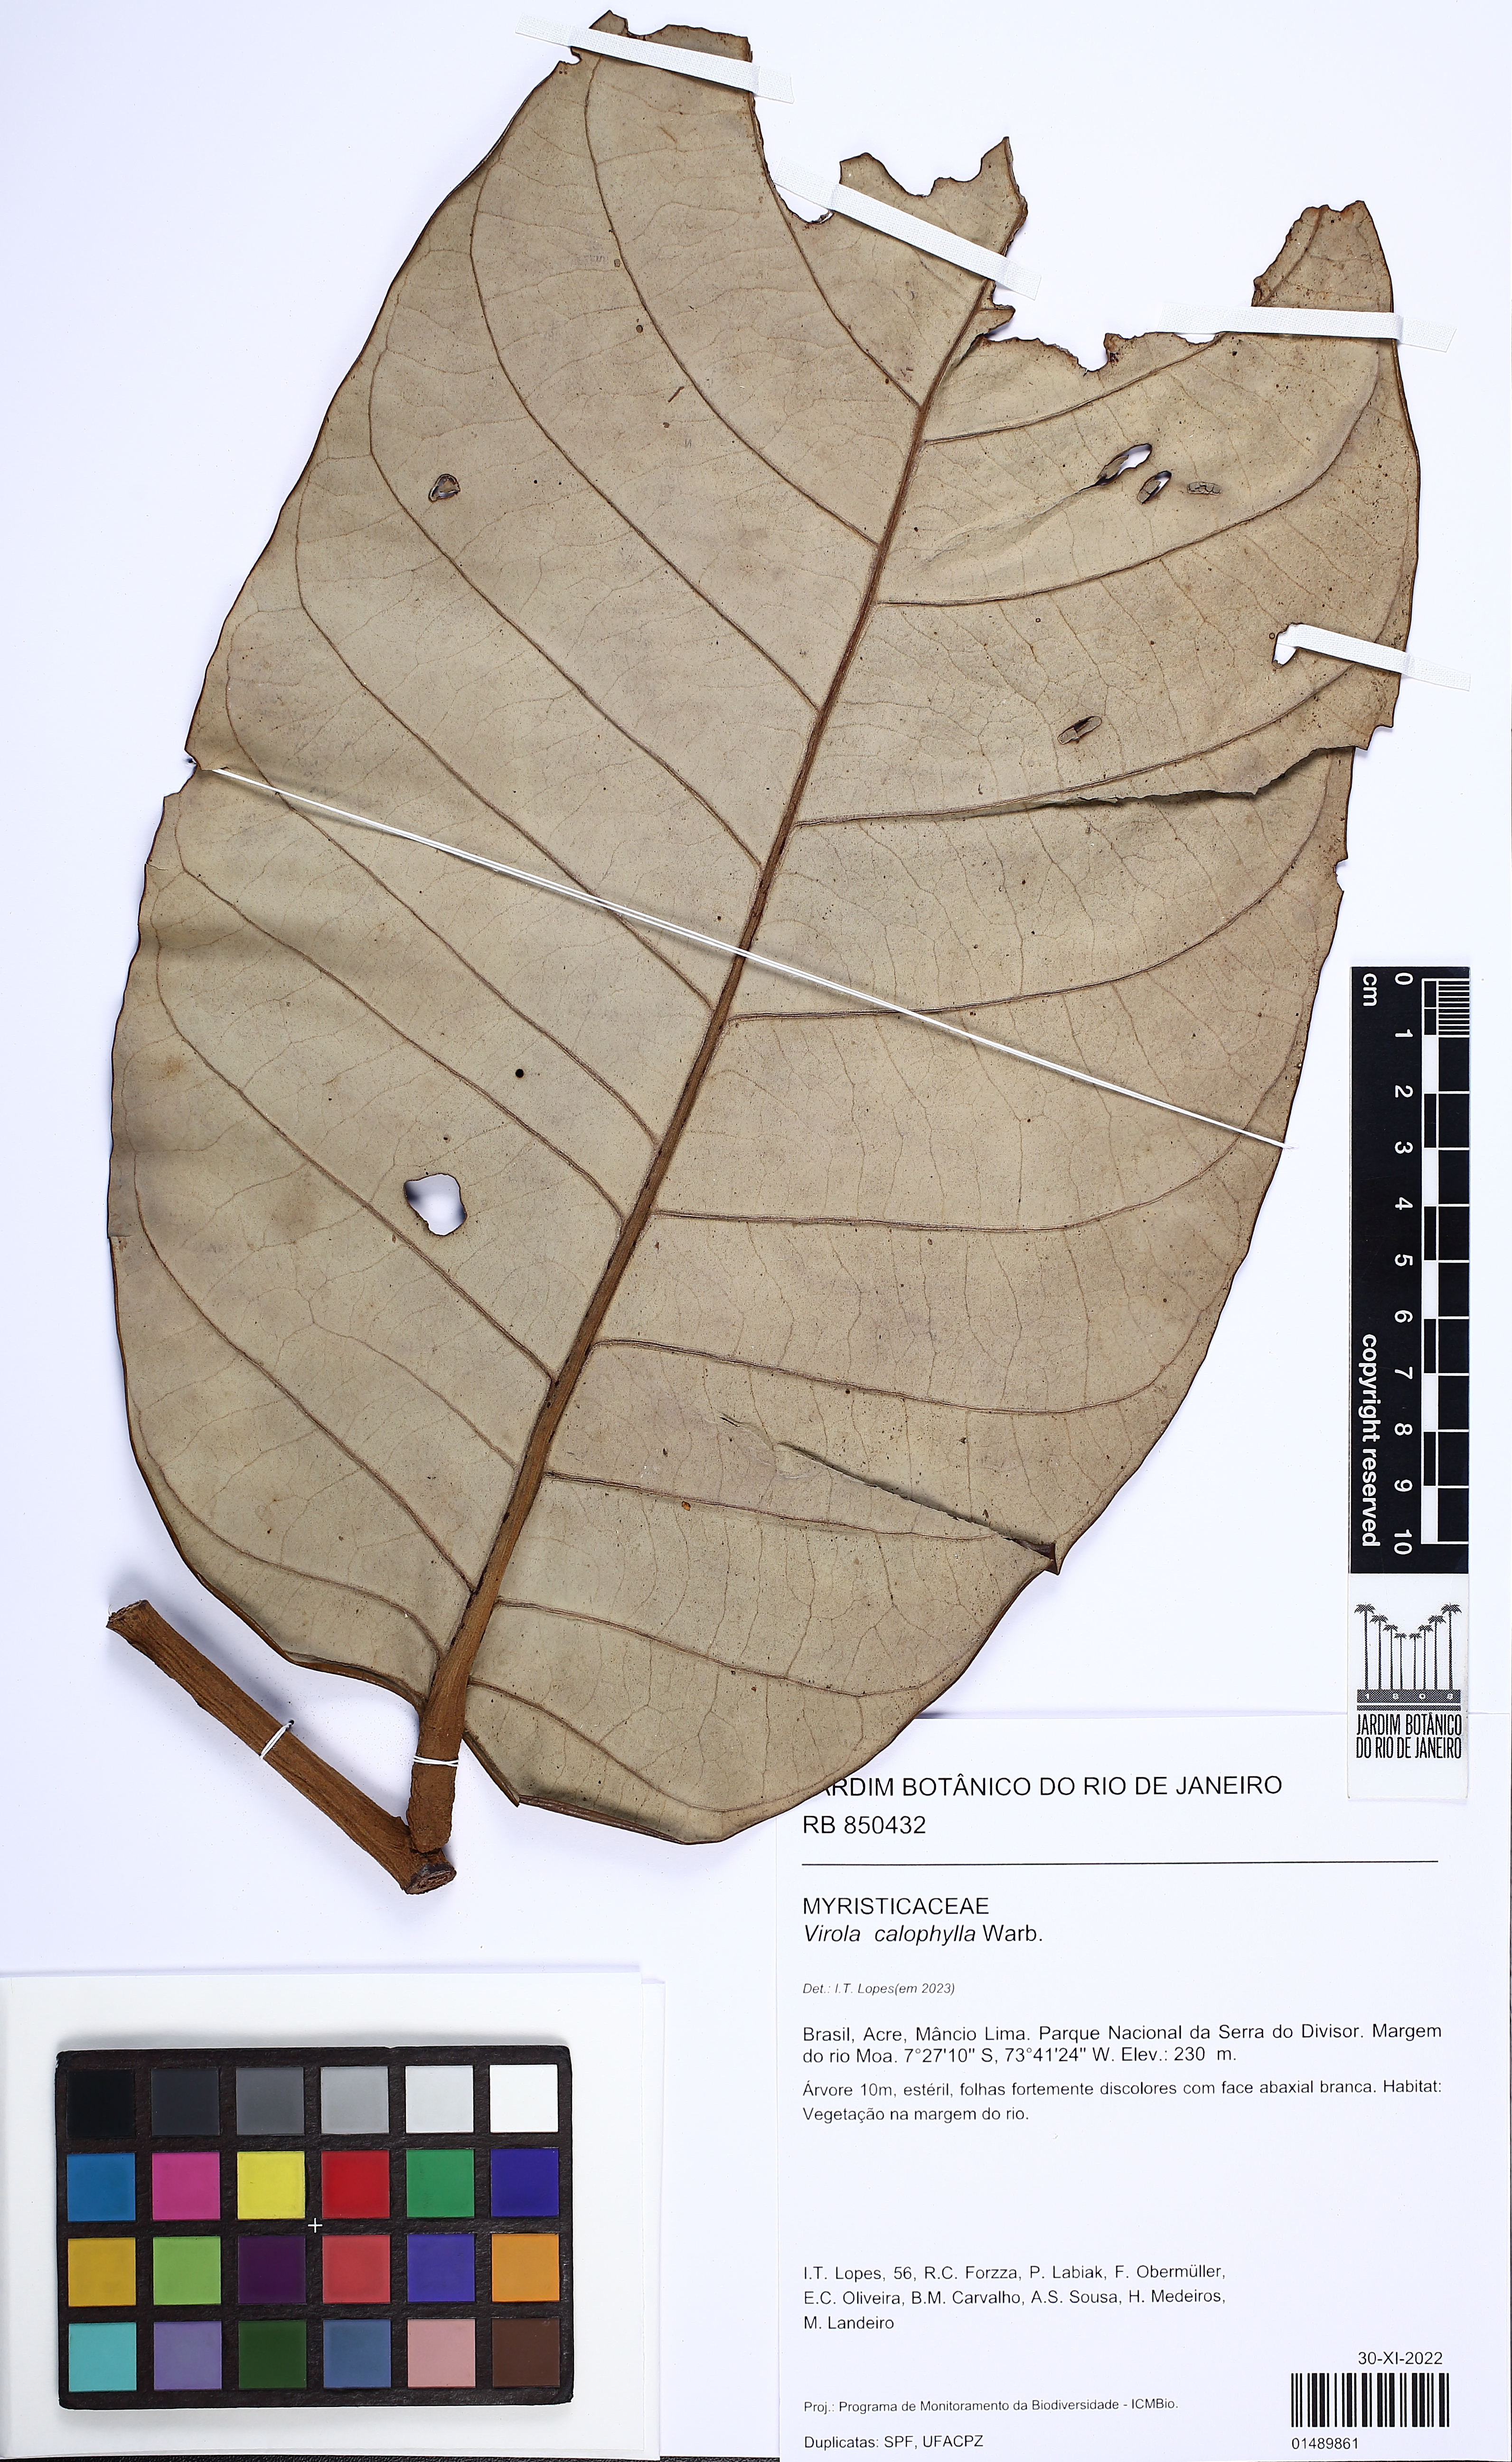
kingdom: Plantae
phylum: Tracheophyta
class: Magnoliopsida
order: Magnoliales
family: Myristicaceae
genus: Virola
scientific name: Virola calophylla
